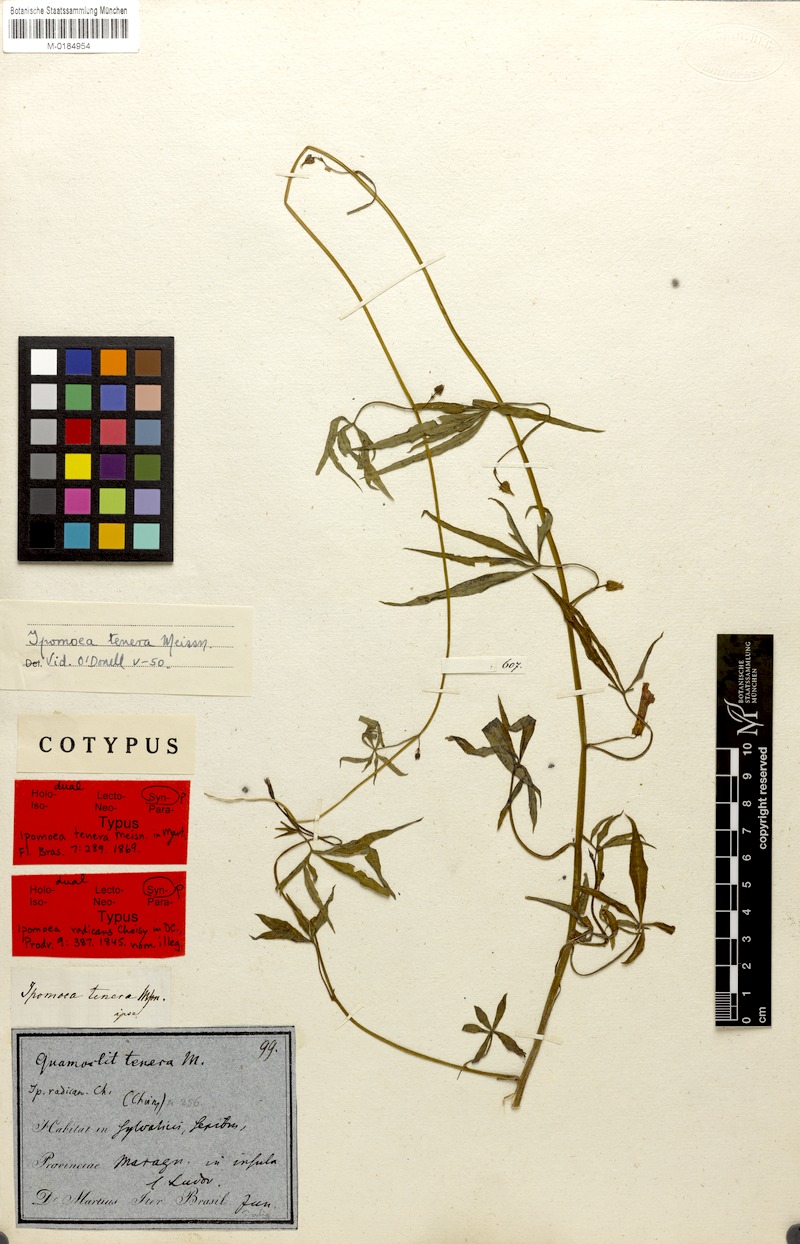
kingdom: Plantae
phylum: Tracheophyta
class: Magnoliopsida
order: Solanales
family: Convolvulaceae
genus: Ipomoea
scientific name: Ipomoea tenera
